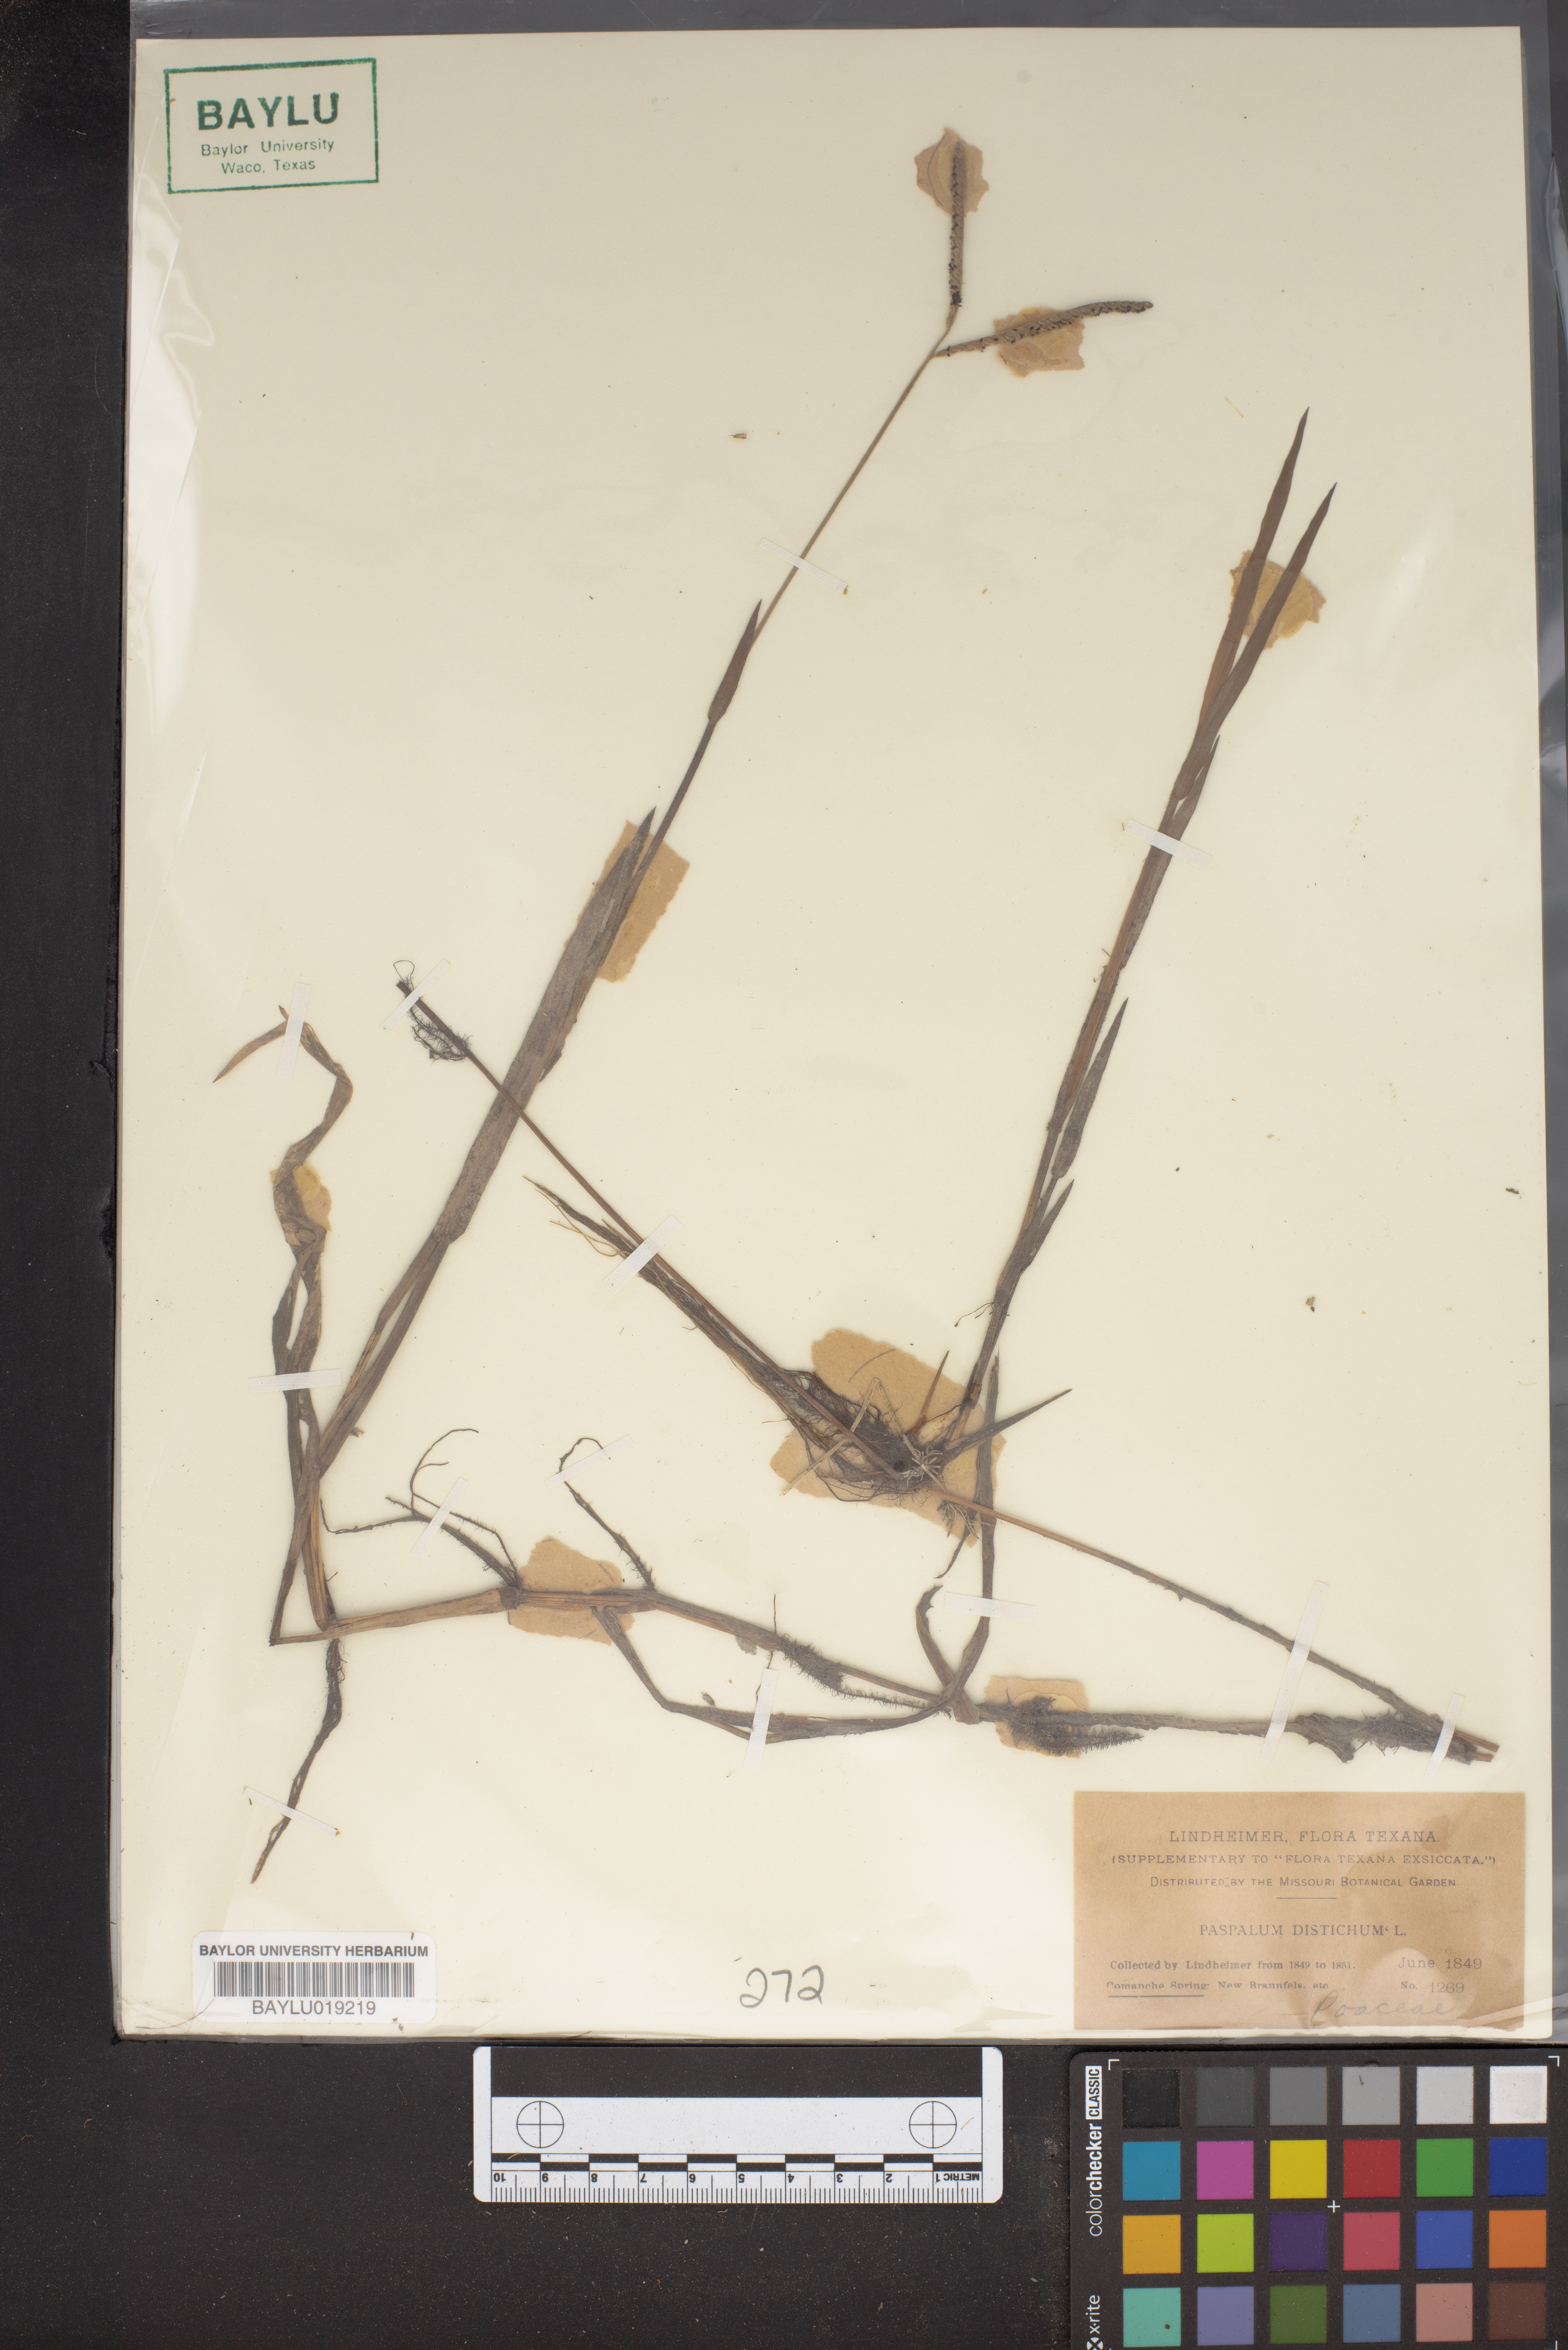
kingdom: Plantae
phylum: Tracheophyta
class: Liliopsida
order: Poales
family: Poaceae
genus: Paspalum
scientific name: Paspalum distichum
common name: Knotgrass
